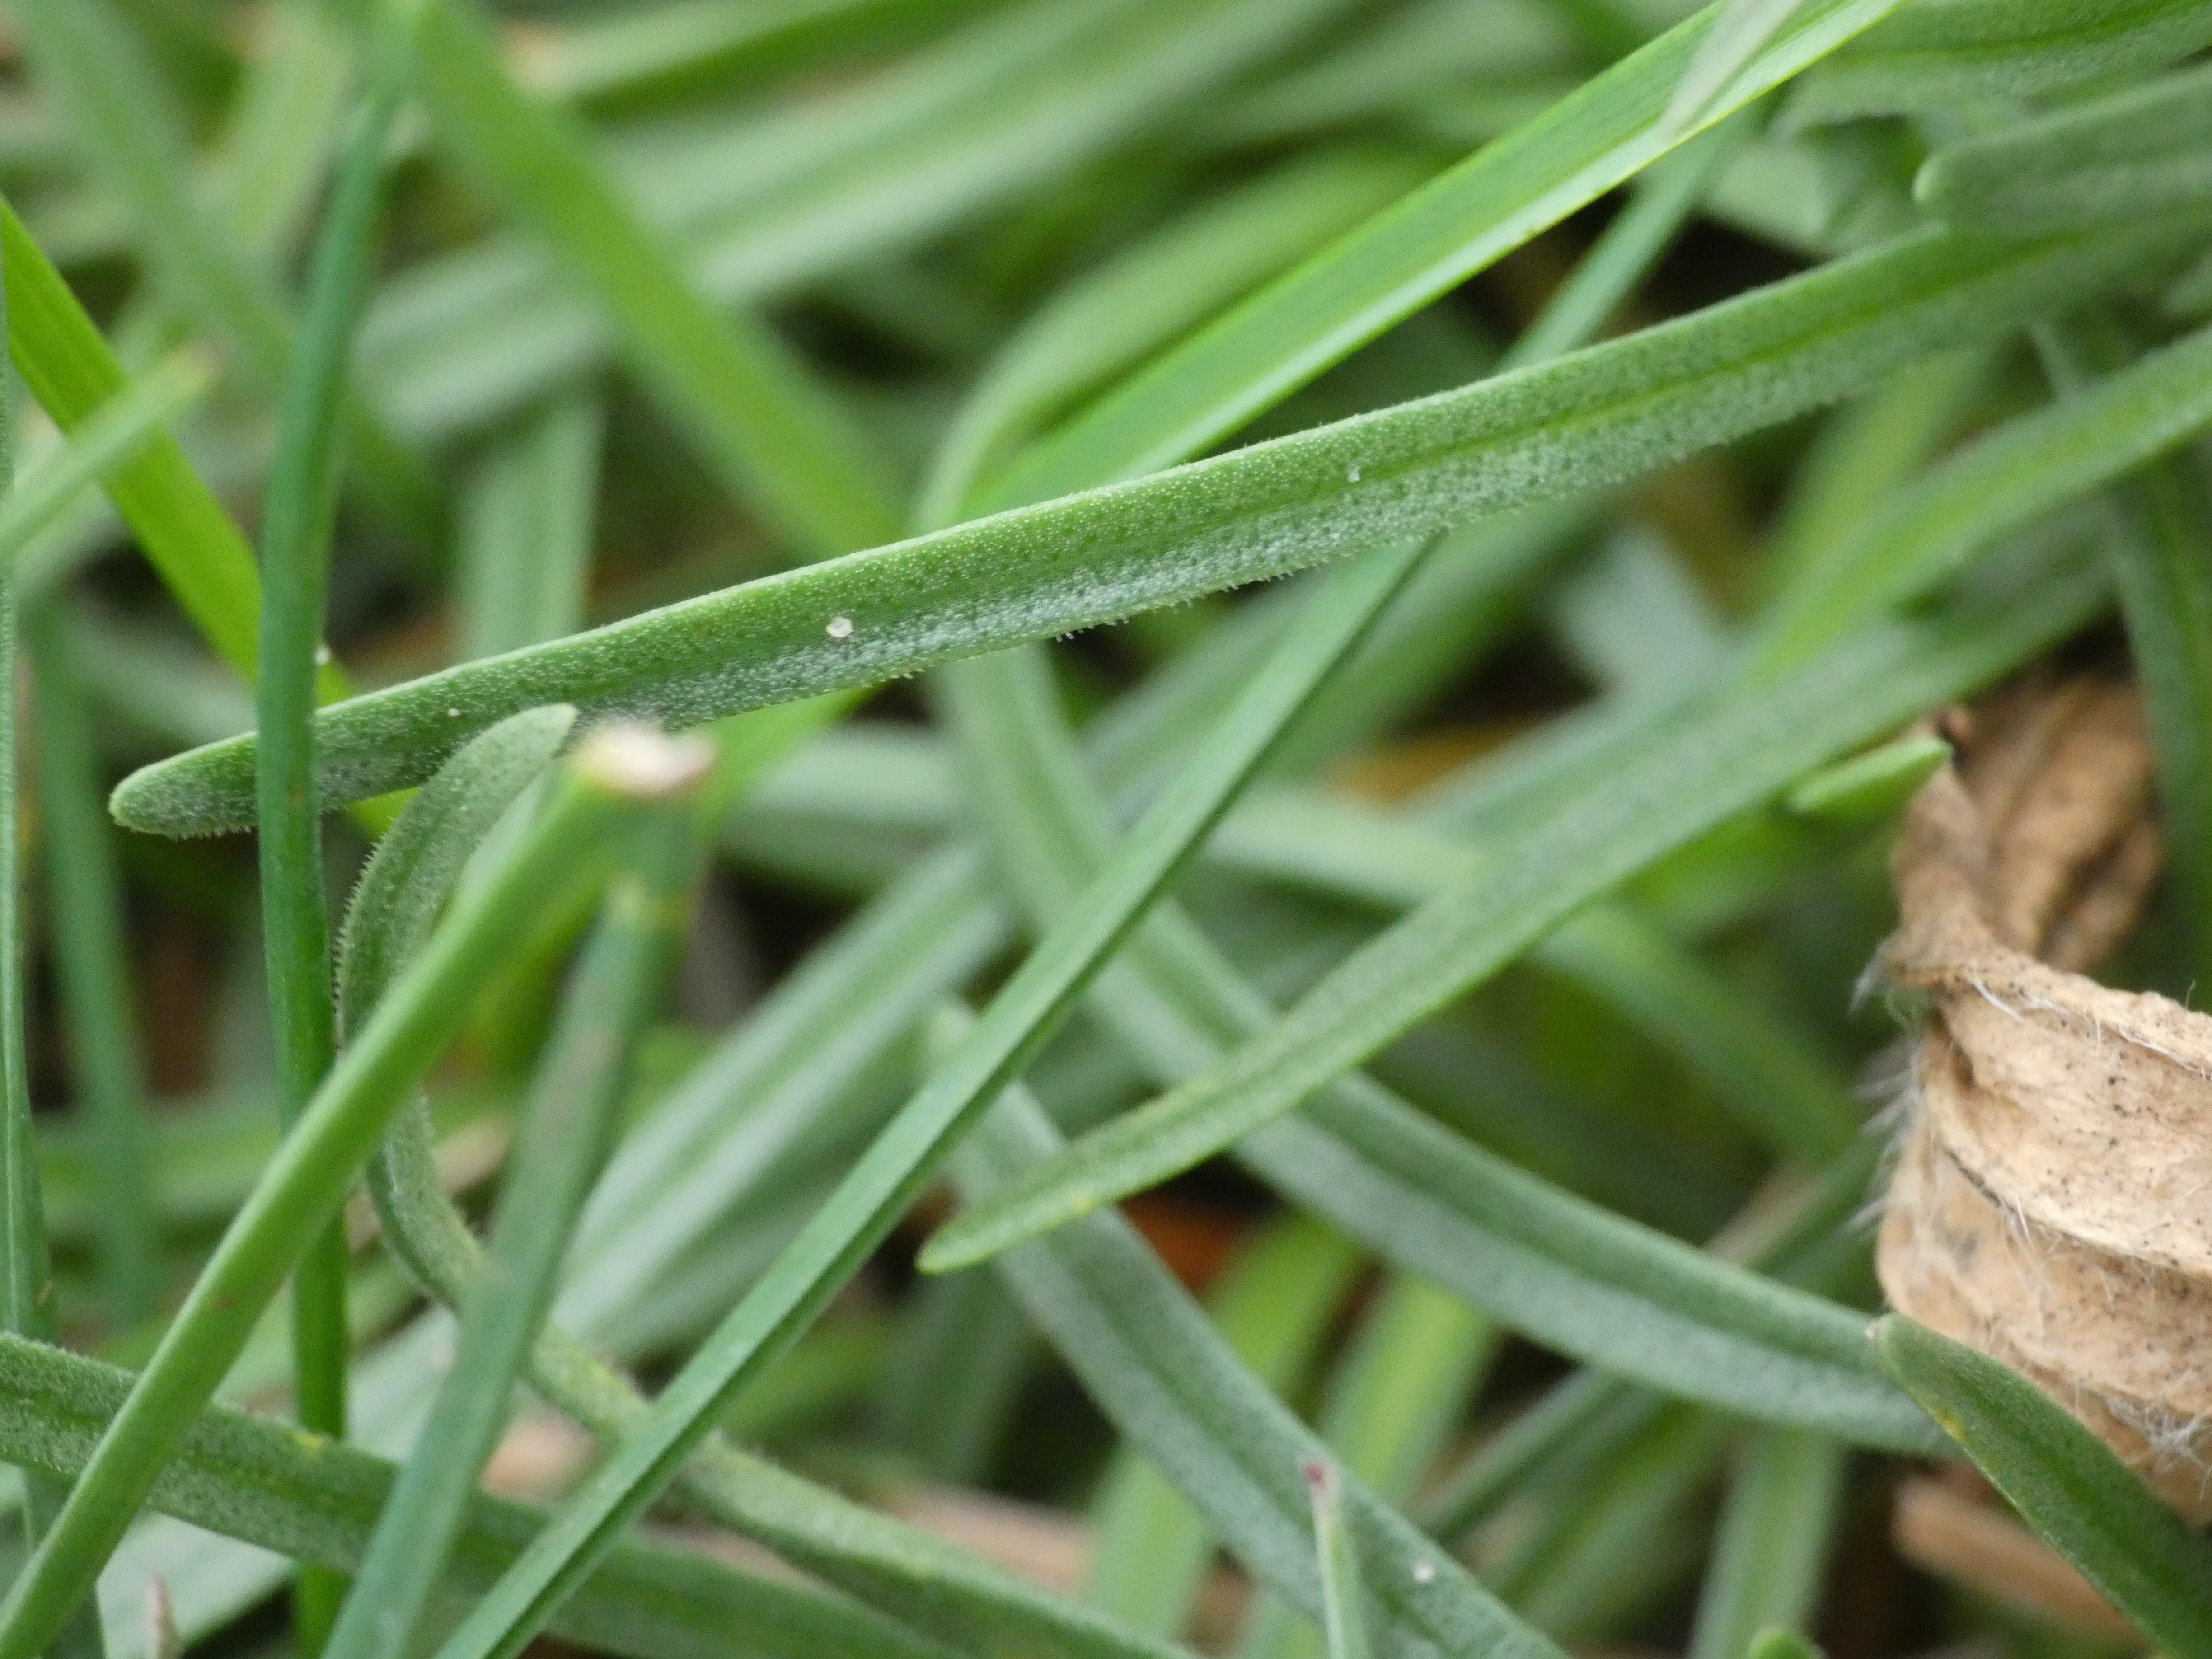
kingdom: Plantae
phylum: Tracheophyta
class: Magnoliopsida
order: Caryophyllales
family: Plumbaginaceae
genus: Armeria
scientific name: Armeria maritima
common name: Engelskgræs
